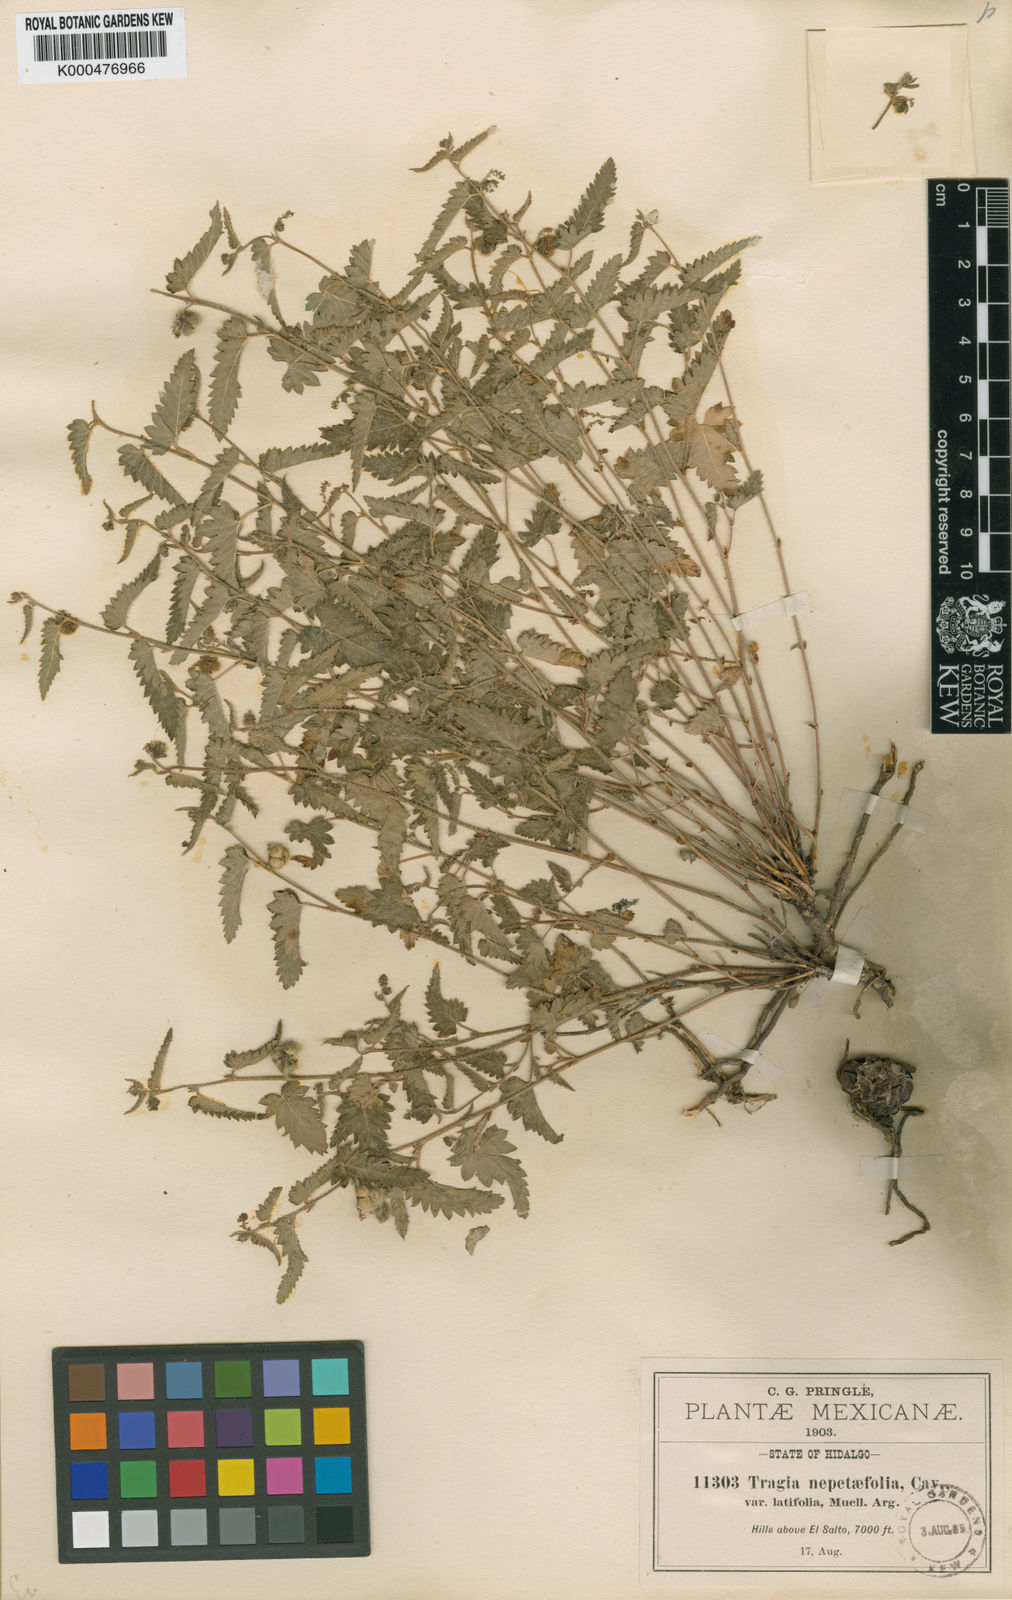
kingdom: Plantae
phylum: Tracheophyta
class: Magnoliopsida
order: Malpighiales
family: Euphorbiaceae
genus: Tragia
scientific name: Tragia ramosa
